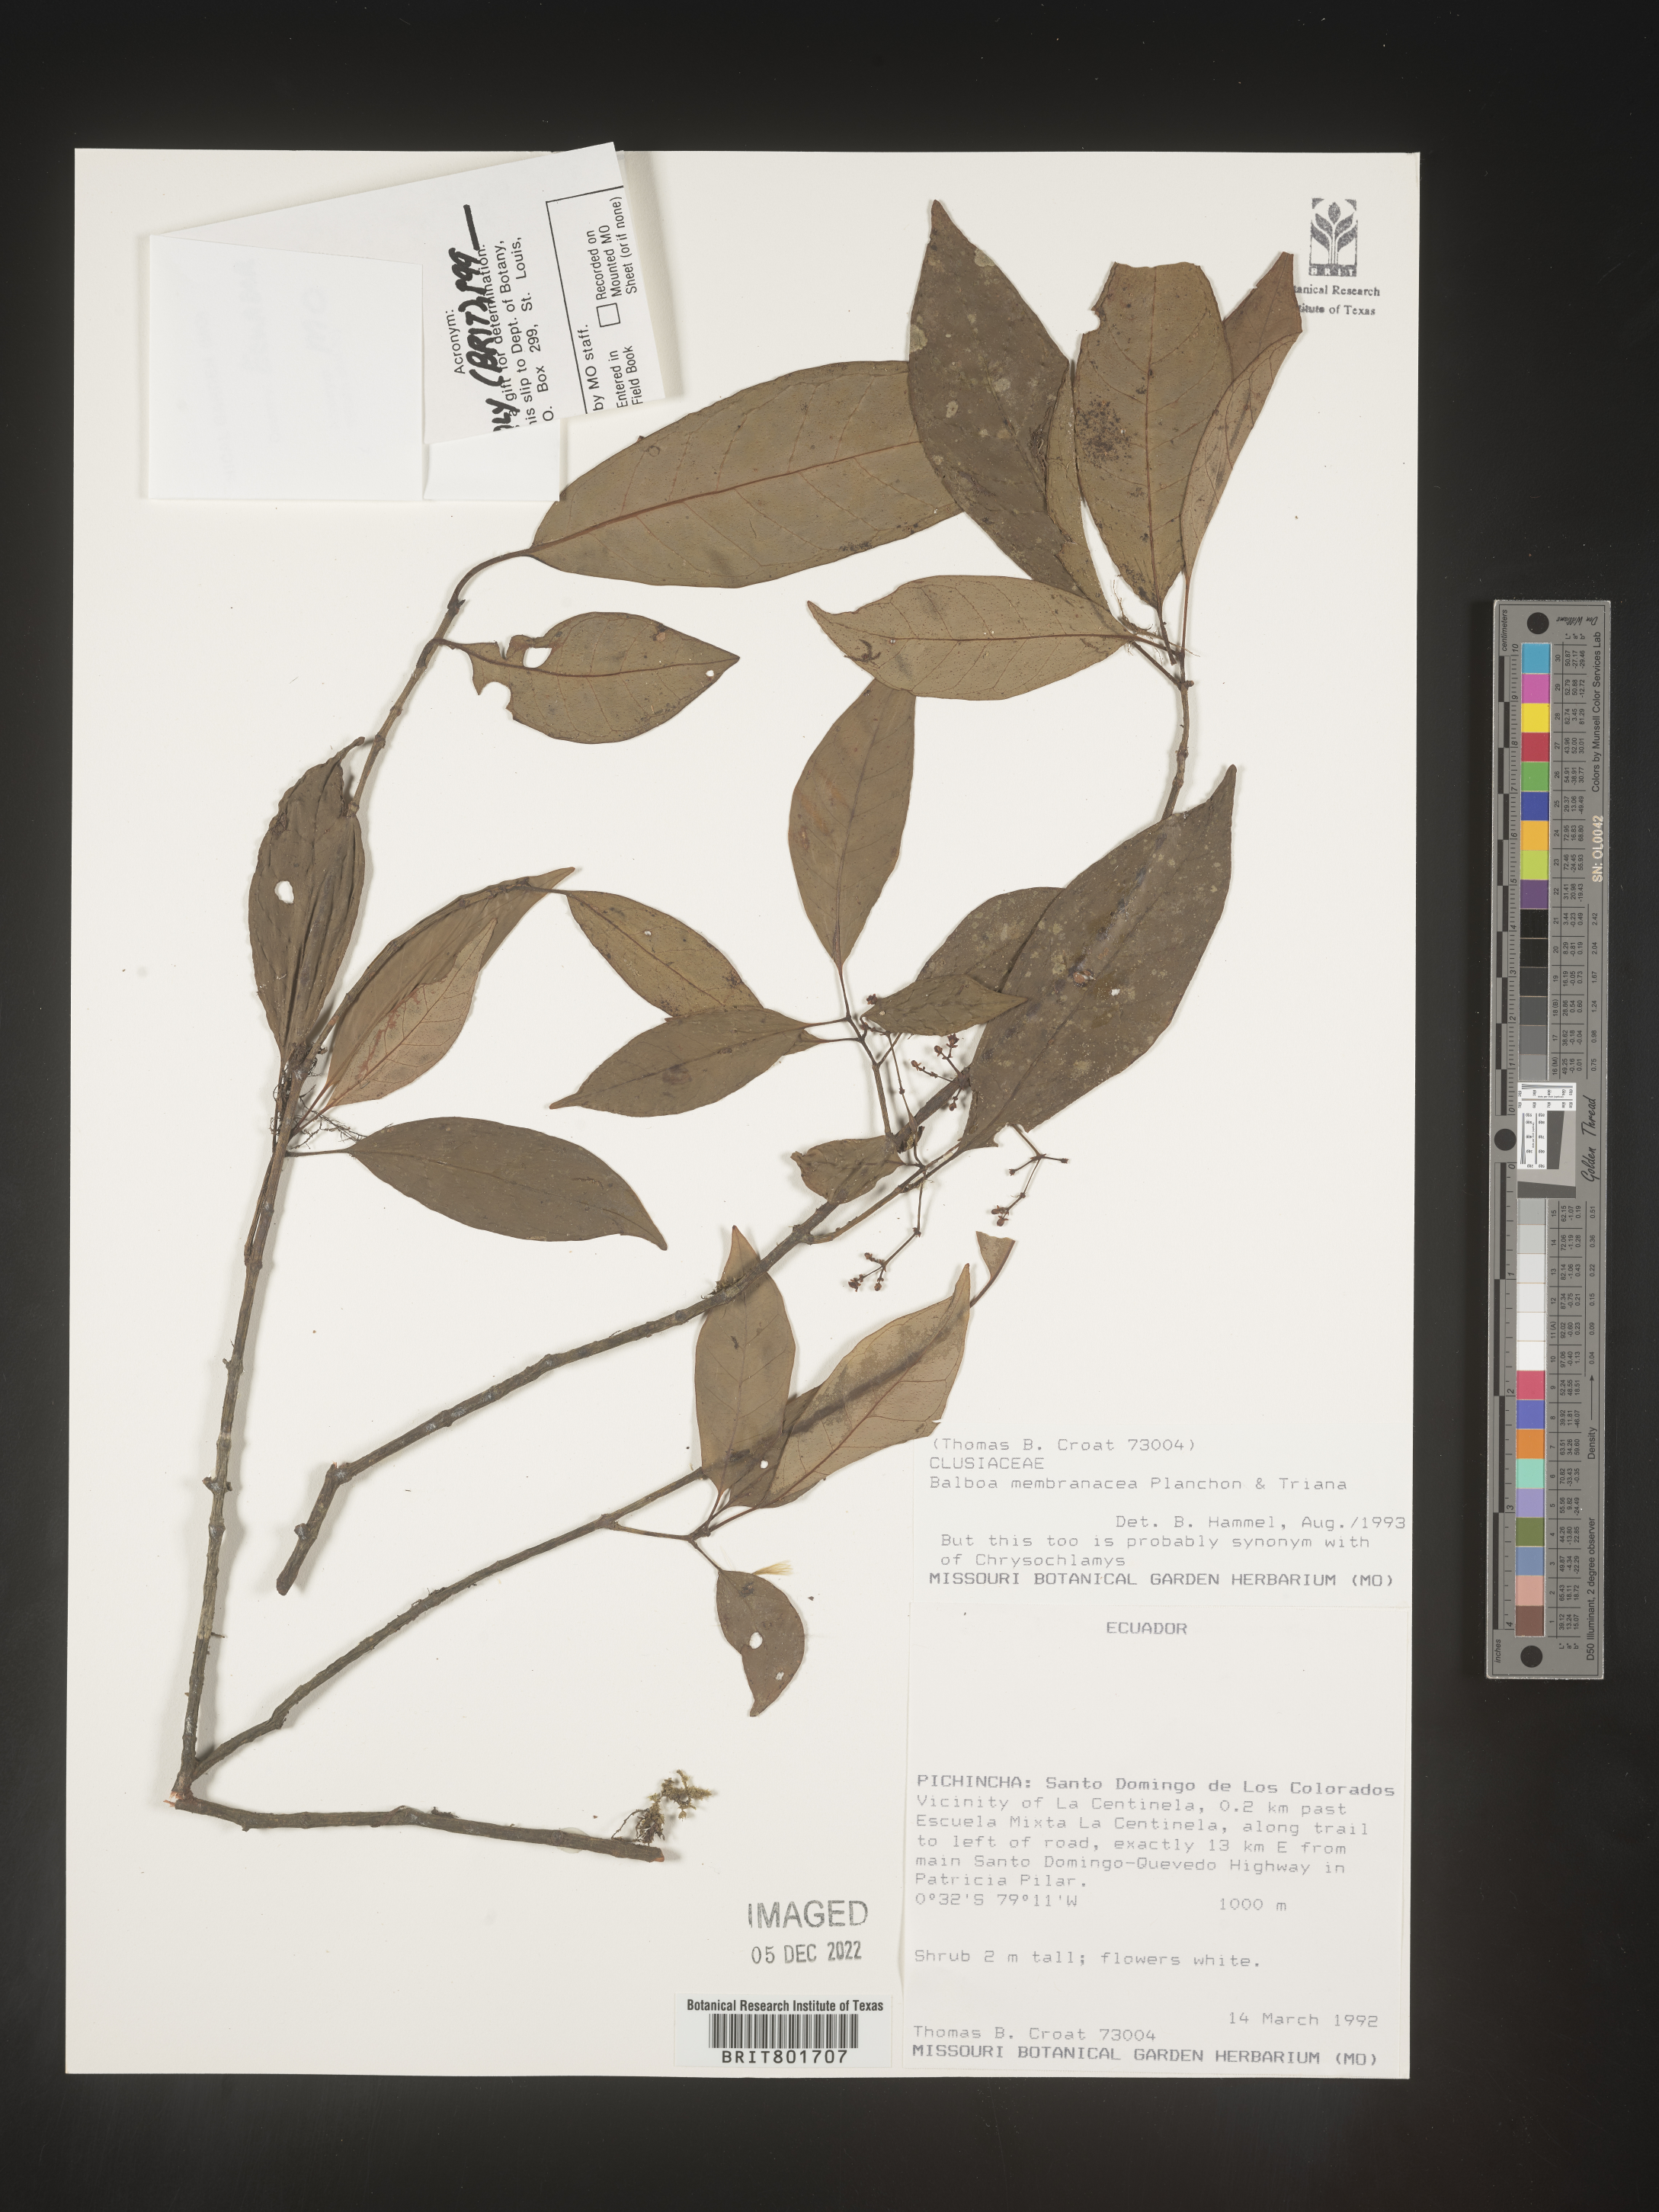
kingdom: Plantae
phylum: Tracheophyta
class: Magnoliopsida
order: Malpighiales
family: Clusiaceae
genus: Chrysochlamys
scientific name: Chrysochlamys
